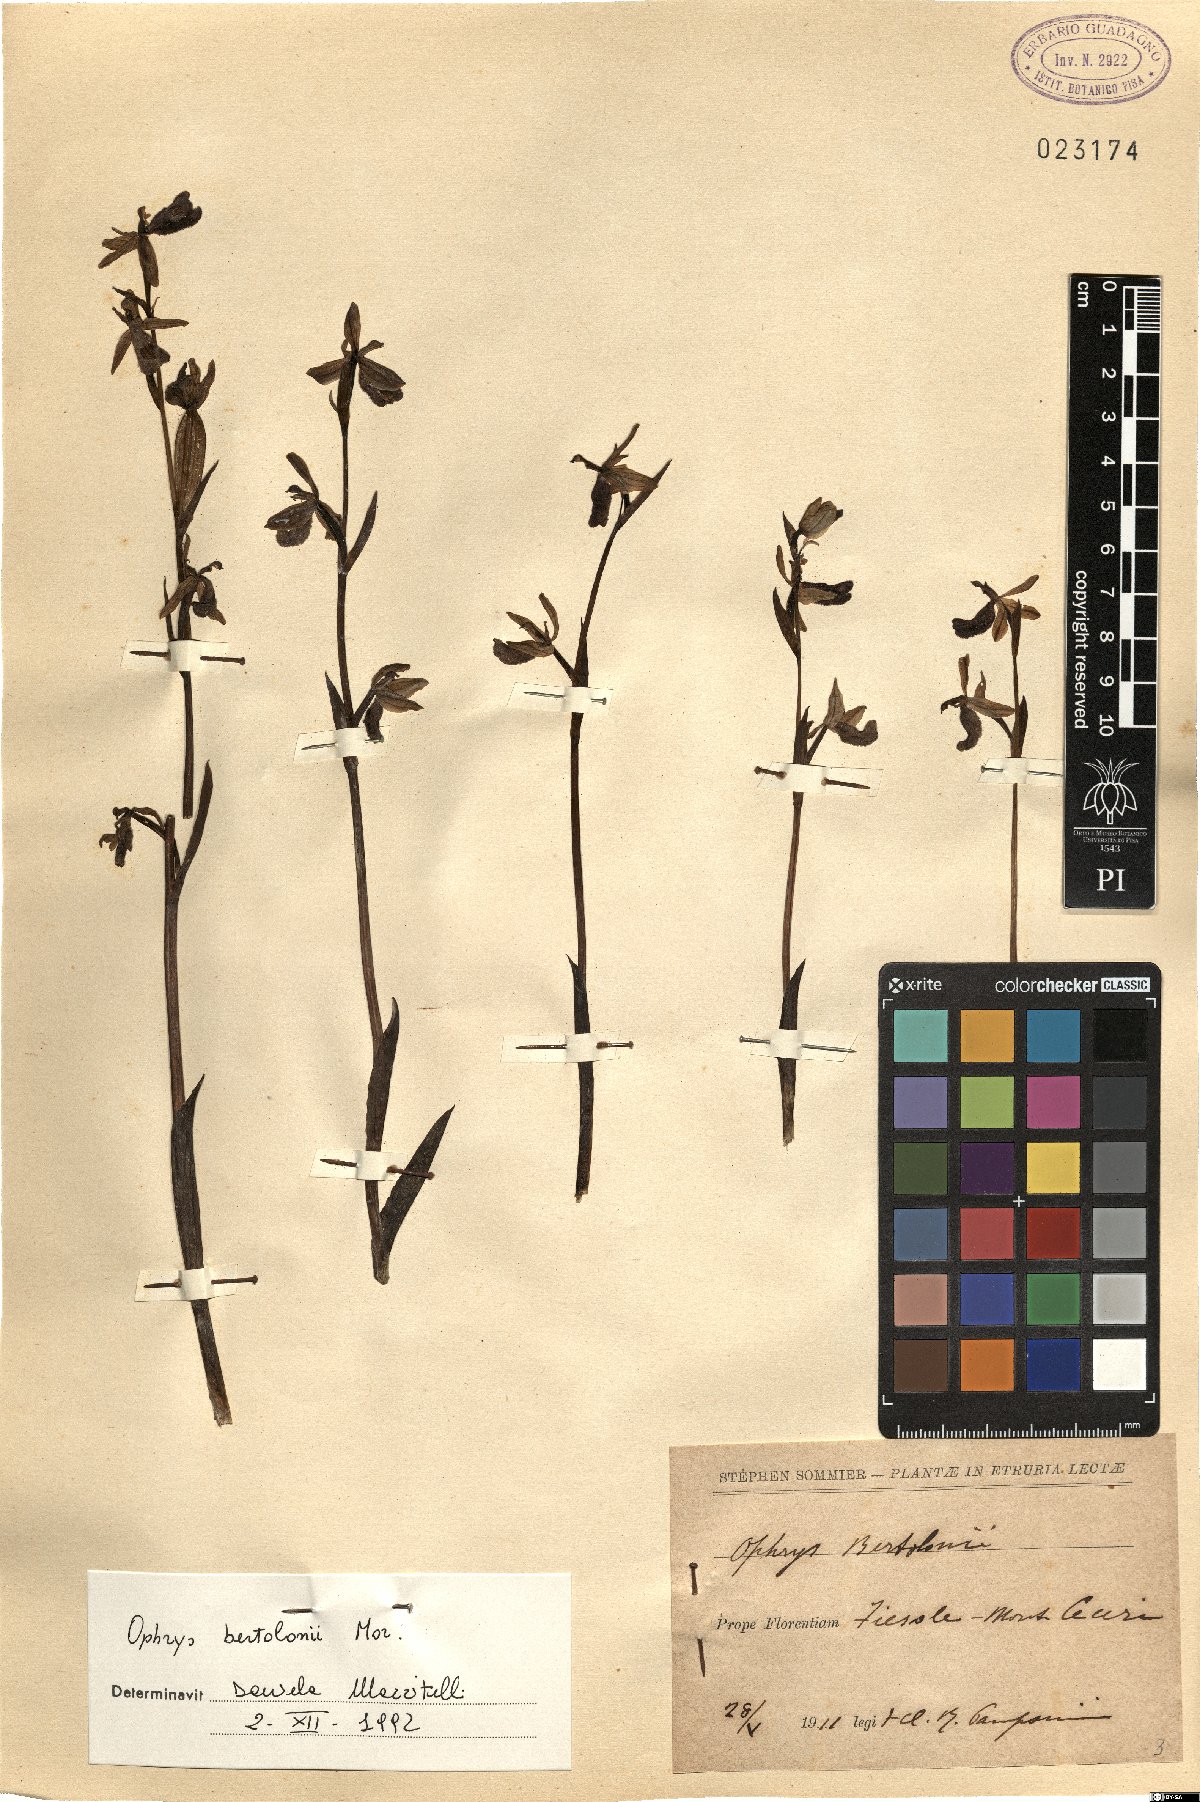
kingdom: Plantae
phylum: Tracheophyta
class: Liliopsida
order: Asparagales
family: Orchidaceae
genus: Ophrys
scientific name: Ophrys bertolonii
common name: Bertoloni's bee orchid
